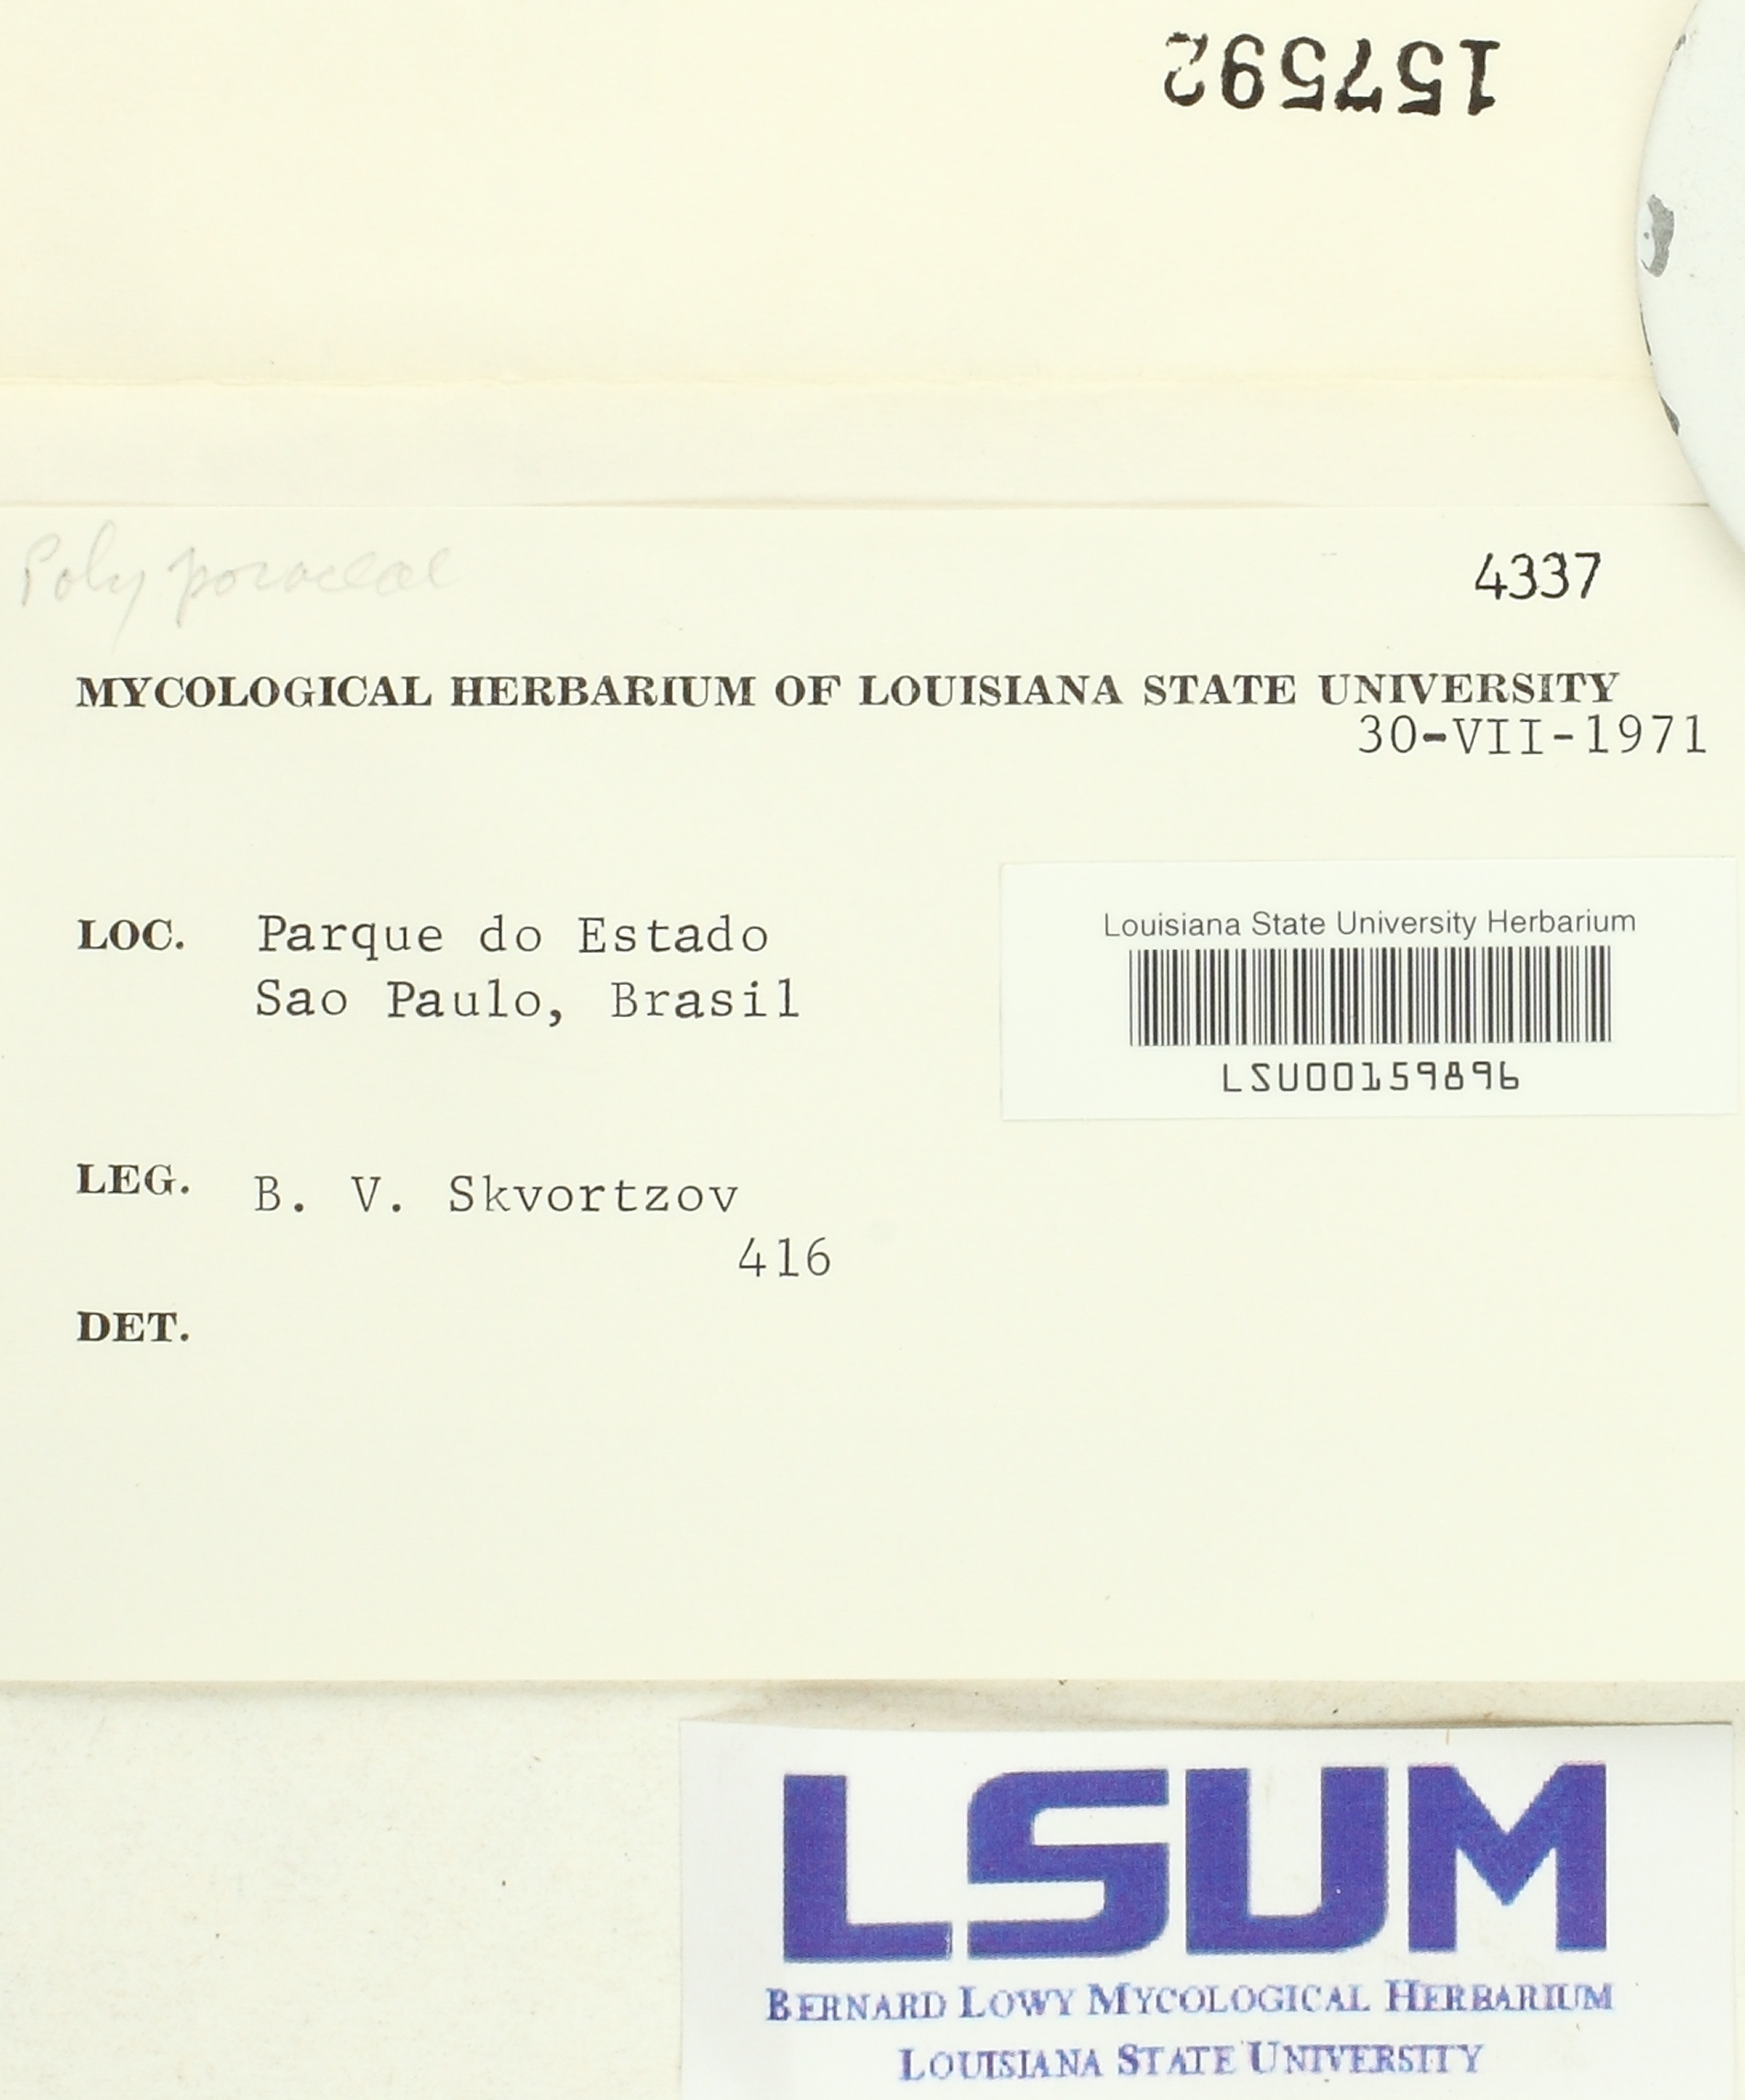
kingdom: Fungi
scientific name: Fungi
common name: Fungi
